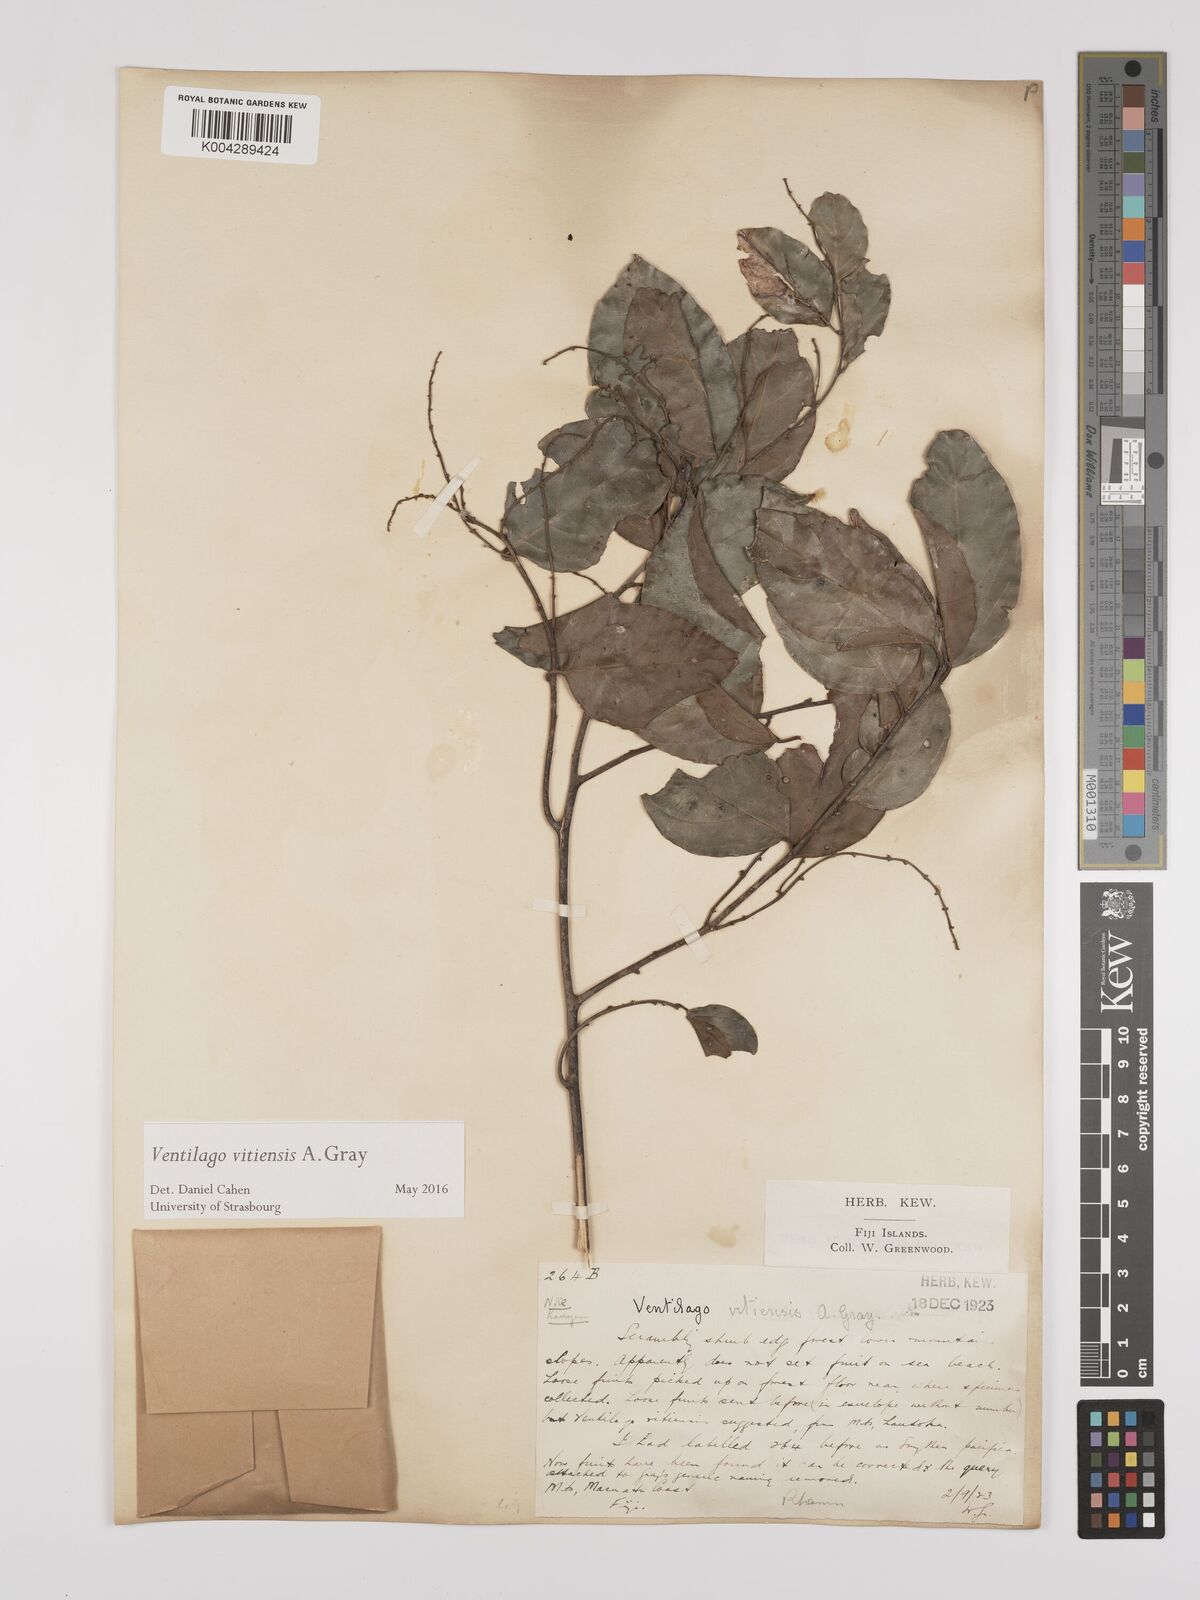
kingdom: Plantae
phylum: Tracheophyta
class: Magnoliopsida
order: Rosales
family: Rhamnaceae
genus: Ventilago
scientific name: Ventilago vitiensis
